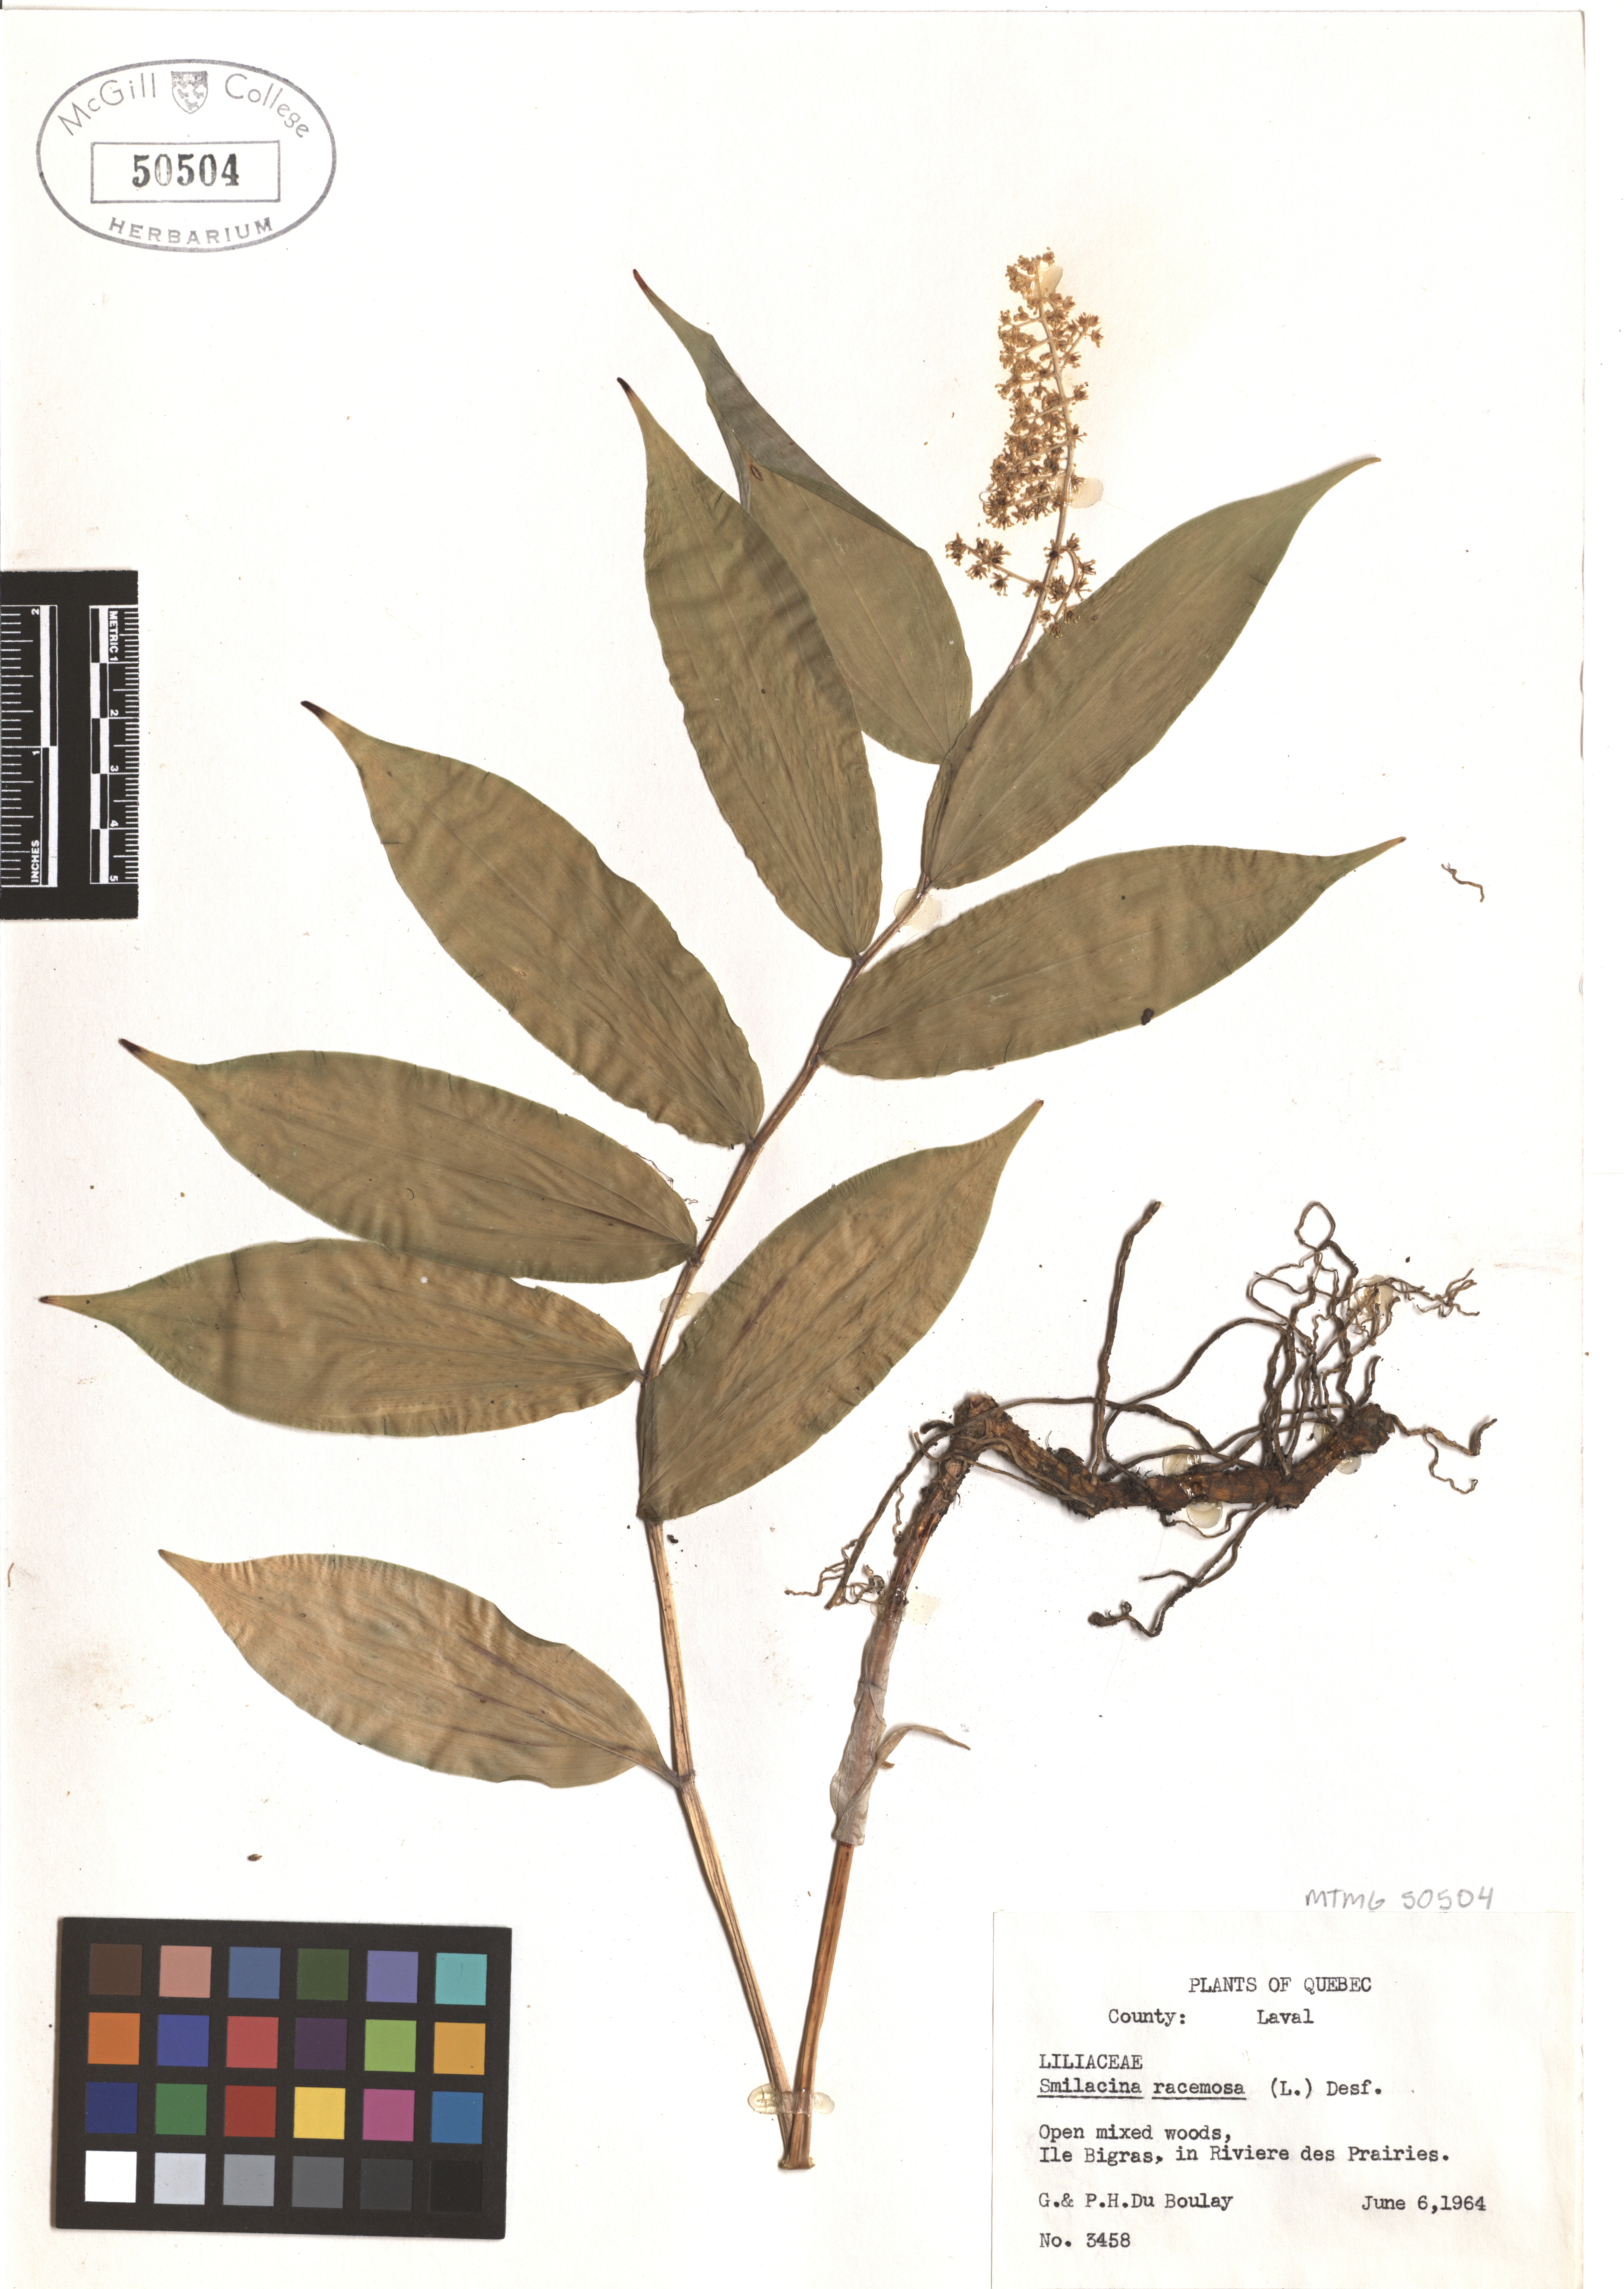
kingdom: Plantae
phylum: Tracheophyta
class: Liliopsida
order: Asparagales
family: Asparagaceae
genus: Maianthemum
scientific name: Maianthemum racemosum
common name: False spikenard
